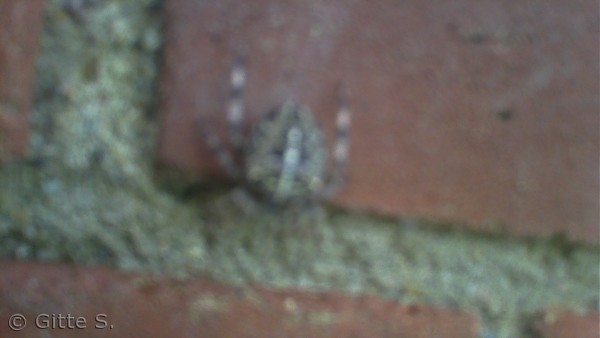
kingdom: Animalia
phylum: Arthropoda
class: Arachnida
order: Araneae
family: Araneidae
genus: Araneus
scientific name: Araneus diadematus
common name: Korsedderkop
